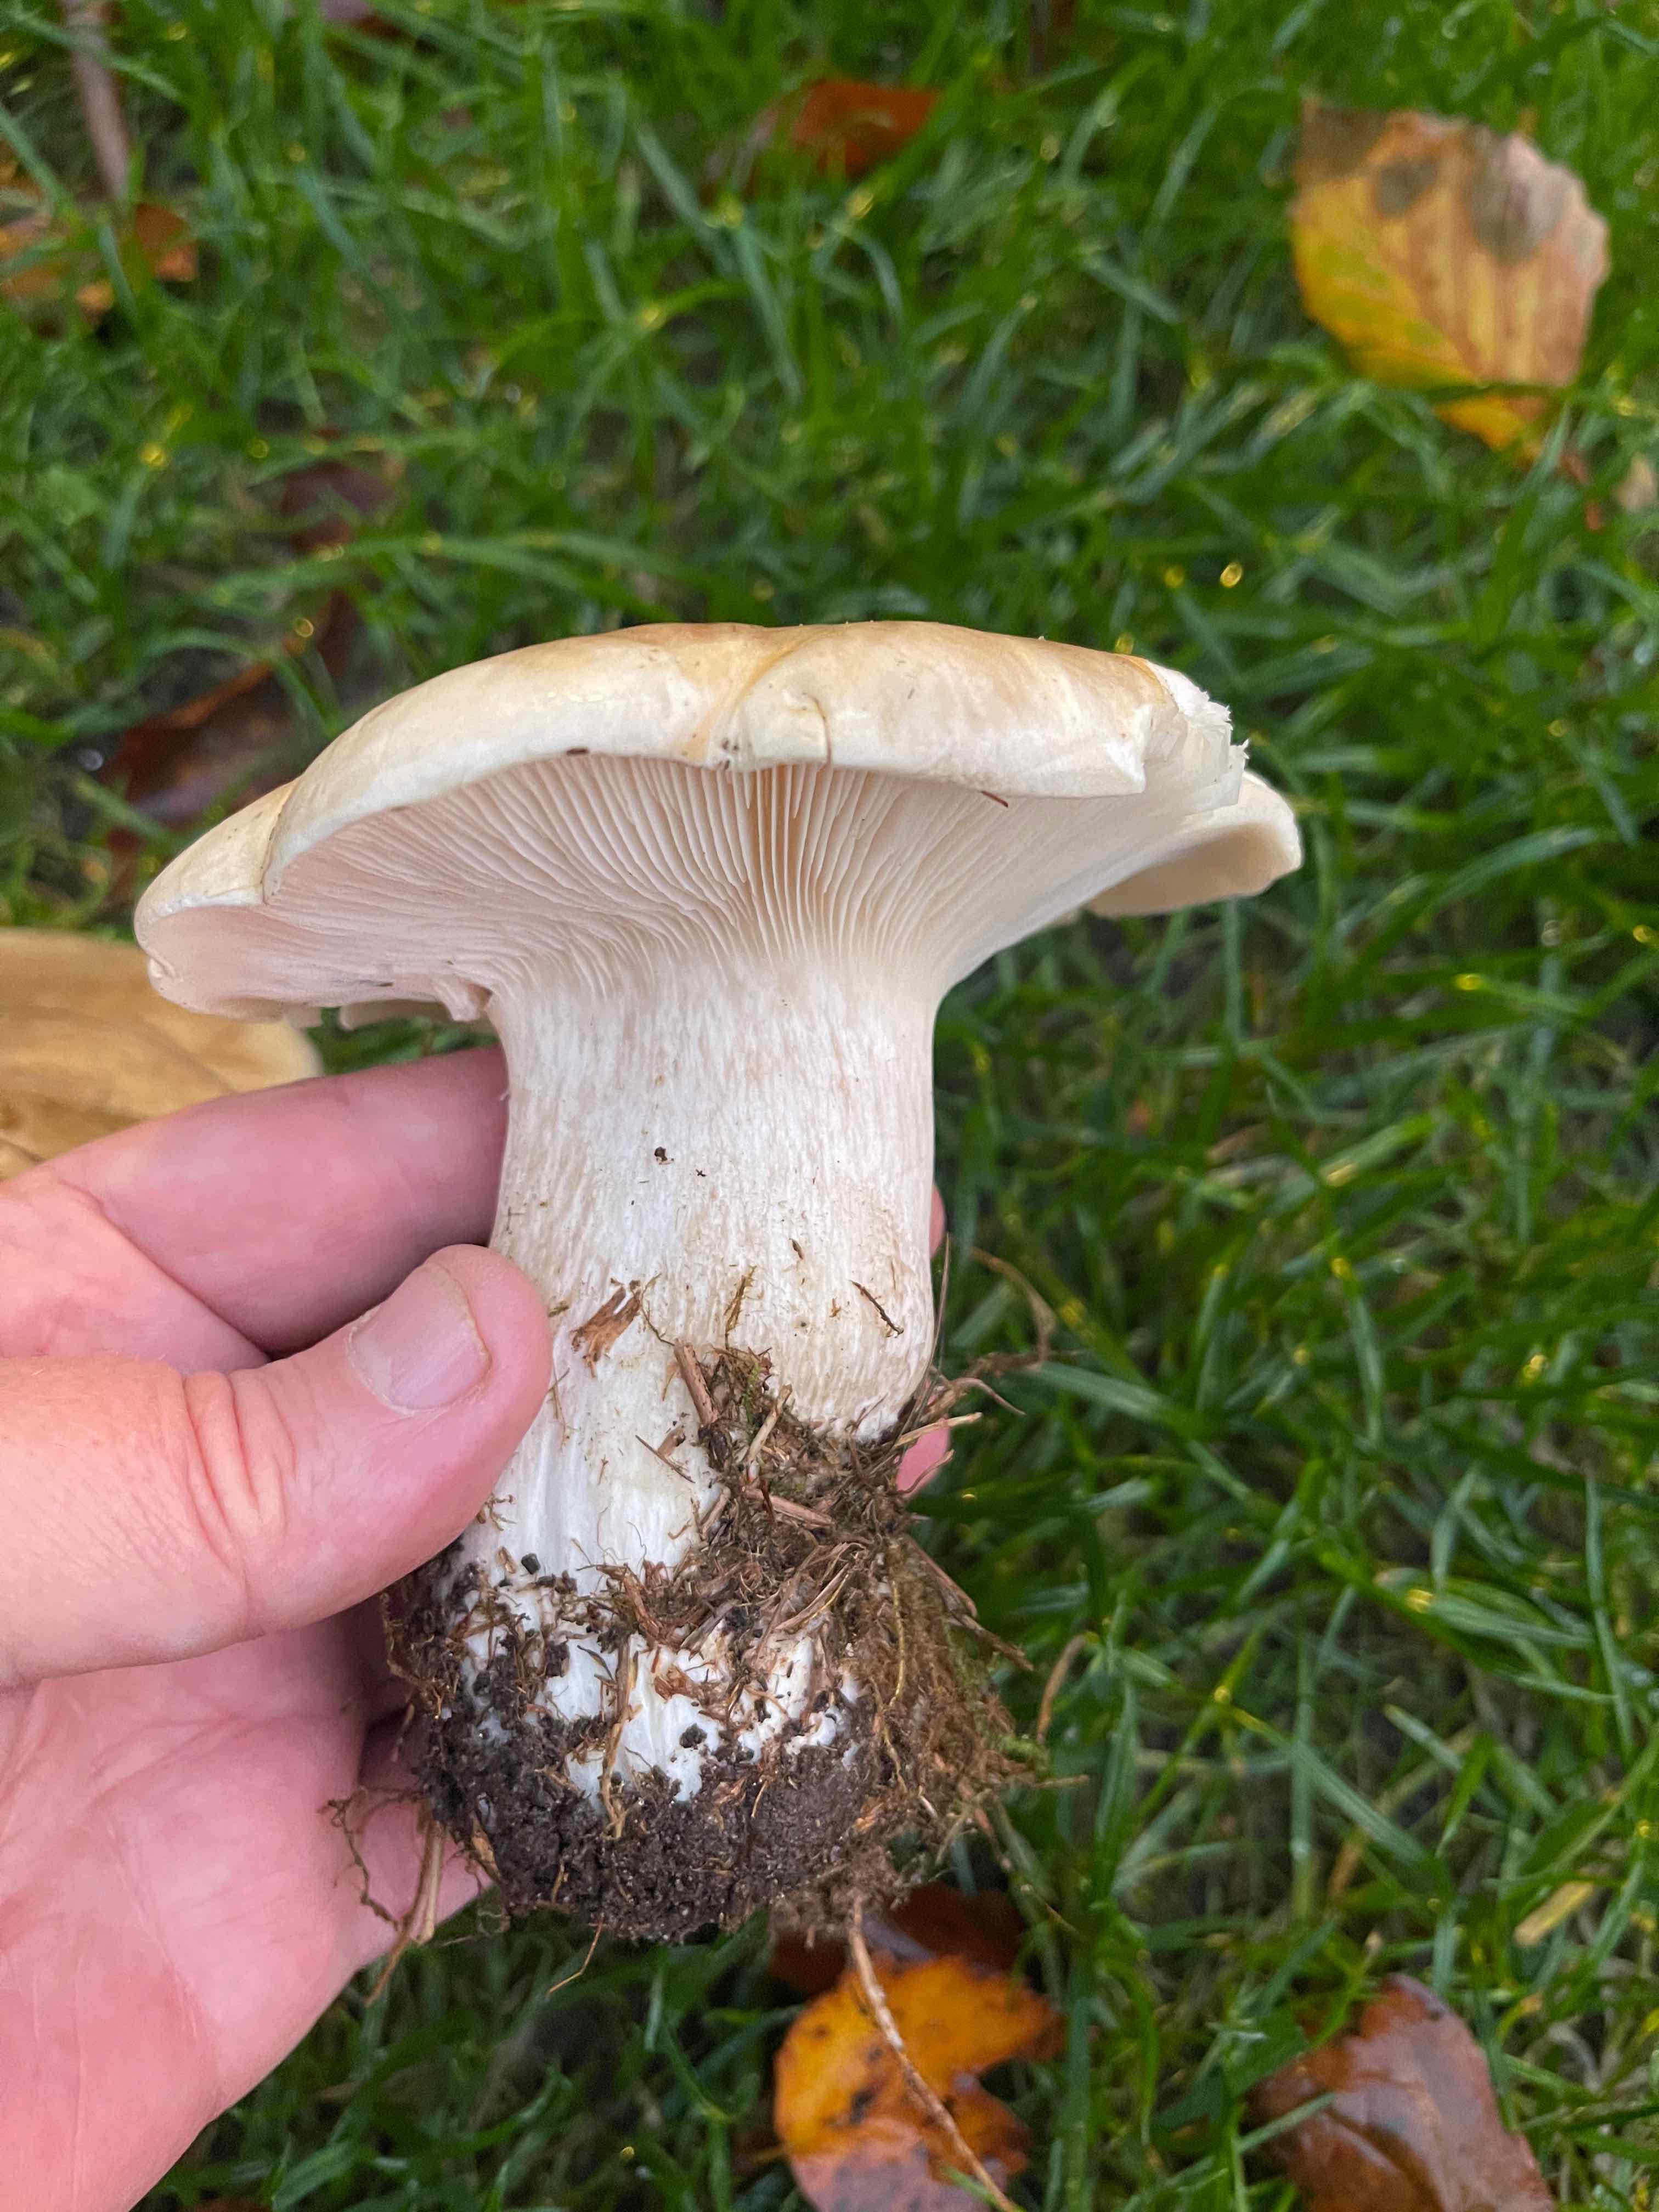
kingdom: Fungi
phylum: Basidiomycota
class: Agaricomycetes
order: Agaricales
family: Tricholomataceae
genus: Clitocybe
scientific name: Clitocybe nebularis
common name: tåge-tragthat
